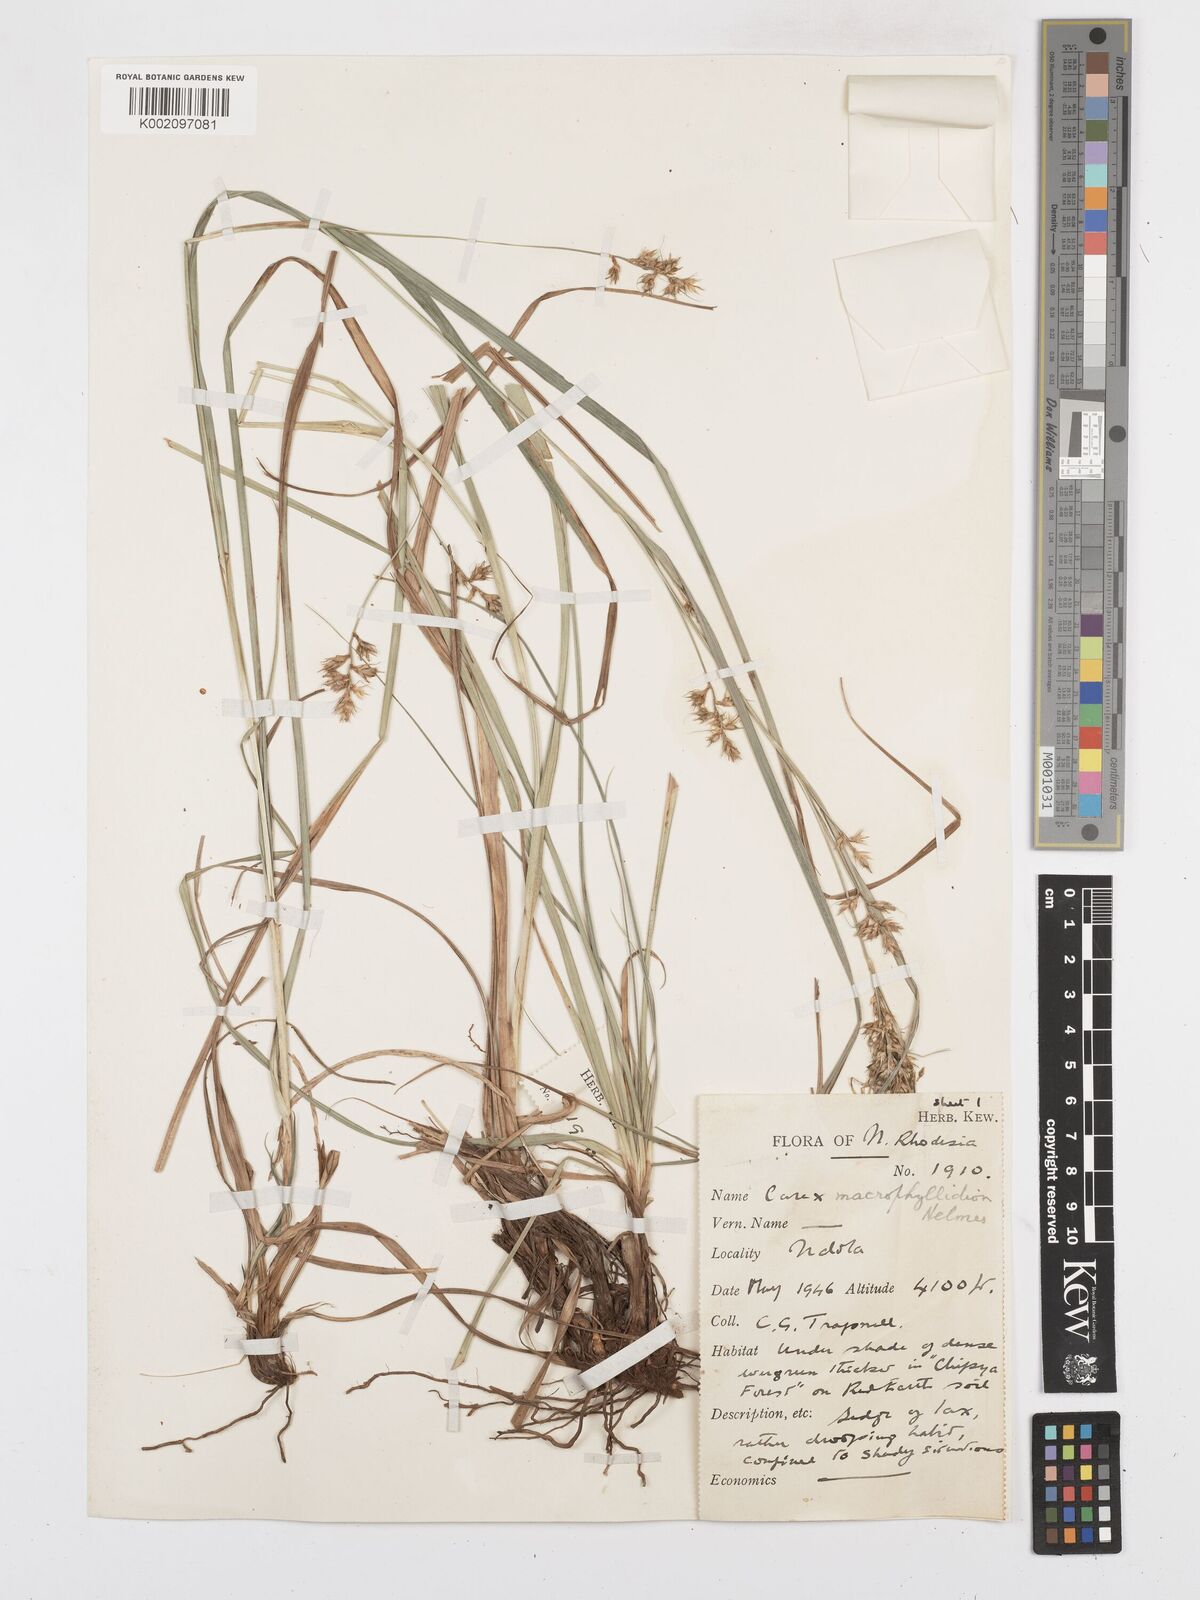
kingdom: Plantae
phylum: Tracheophyta
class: Liliopsida
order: Poales
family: Cyperaceae
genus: Carex
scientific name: Carex macrophyllidion
